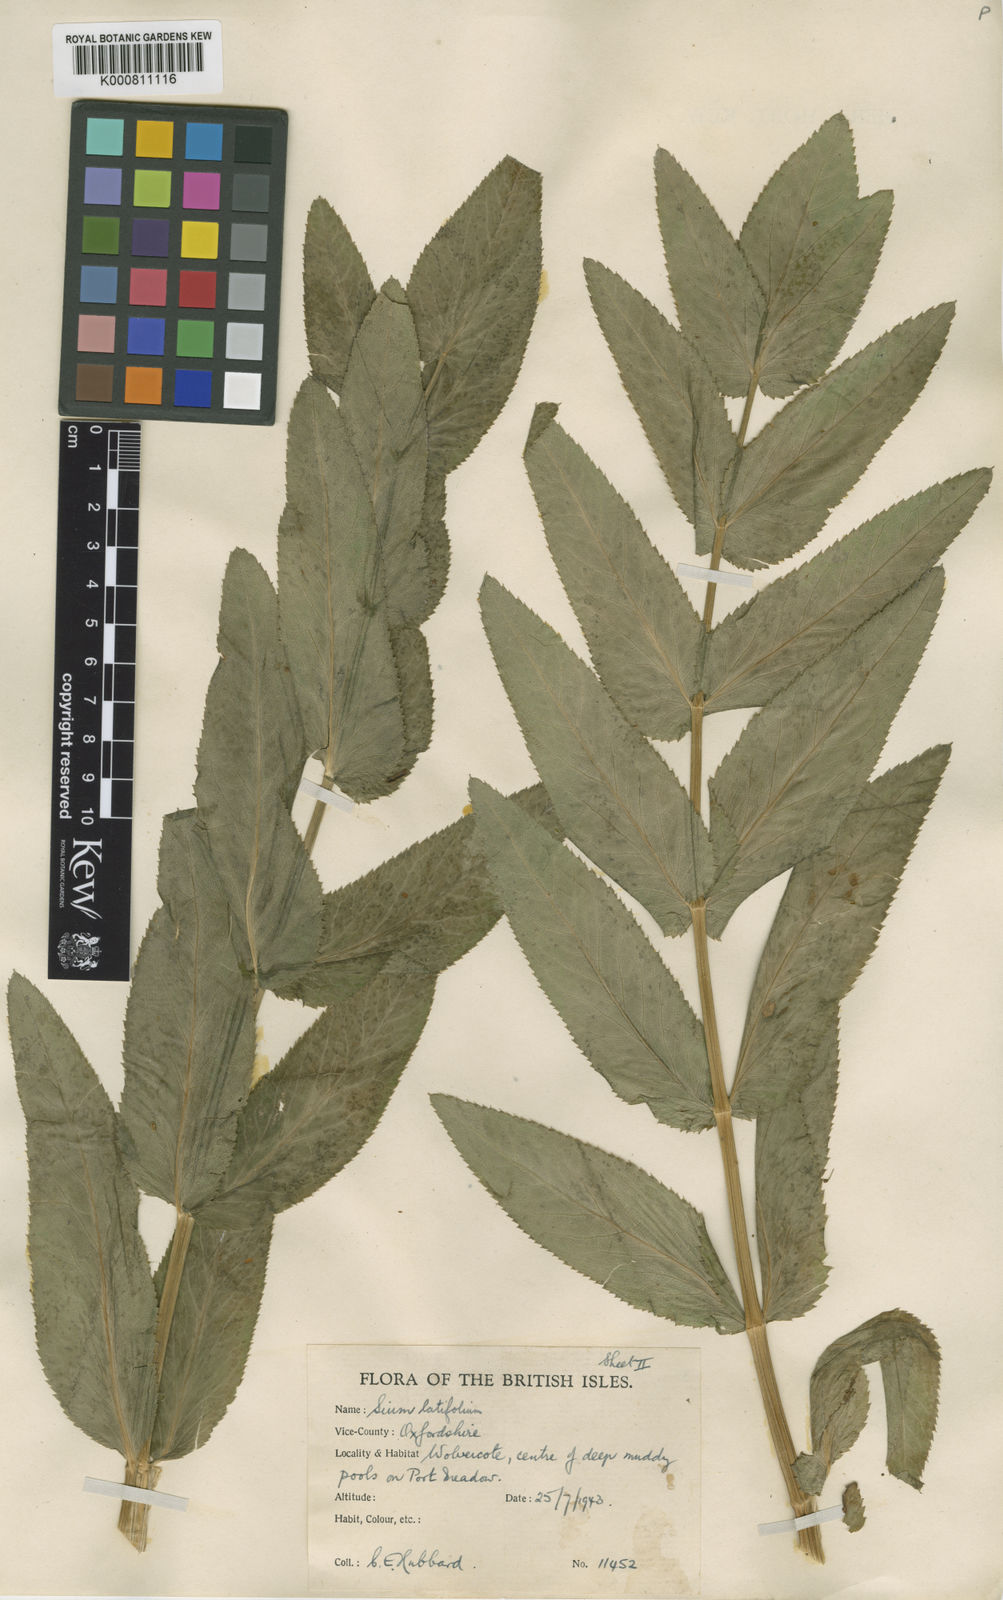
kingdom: Plantae
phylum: Tracheophyta
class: Magnoliopsida
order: Apiales
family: Apiaceae
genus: Sium
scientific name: Sium latifolium
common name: Greater water-parsnip
